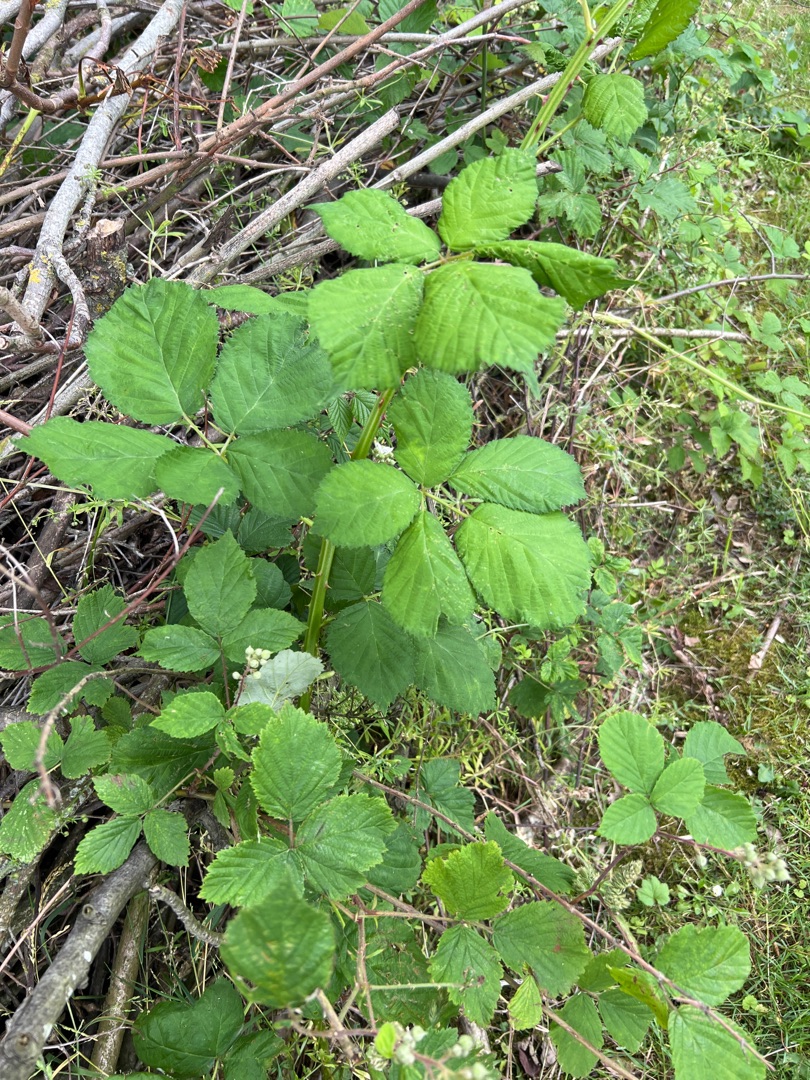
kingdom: Plantae
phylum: Tracheophyta
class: Magnoliopsida
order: Rosales
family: Rosaceae
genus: Rubus
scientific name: Rubus armeniacus
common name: Armensk brombær
